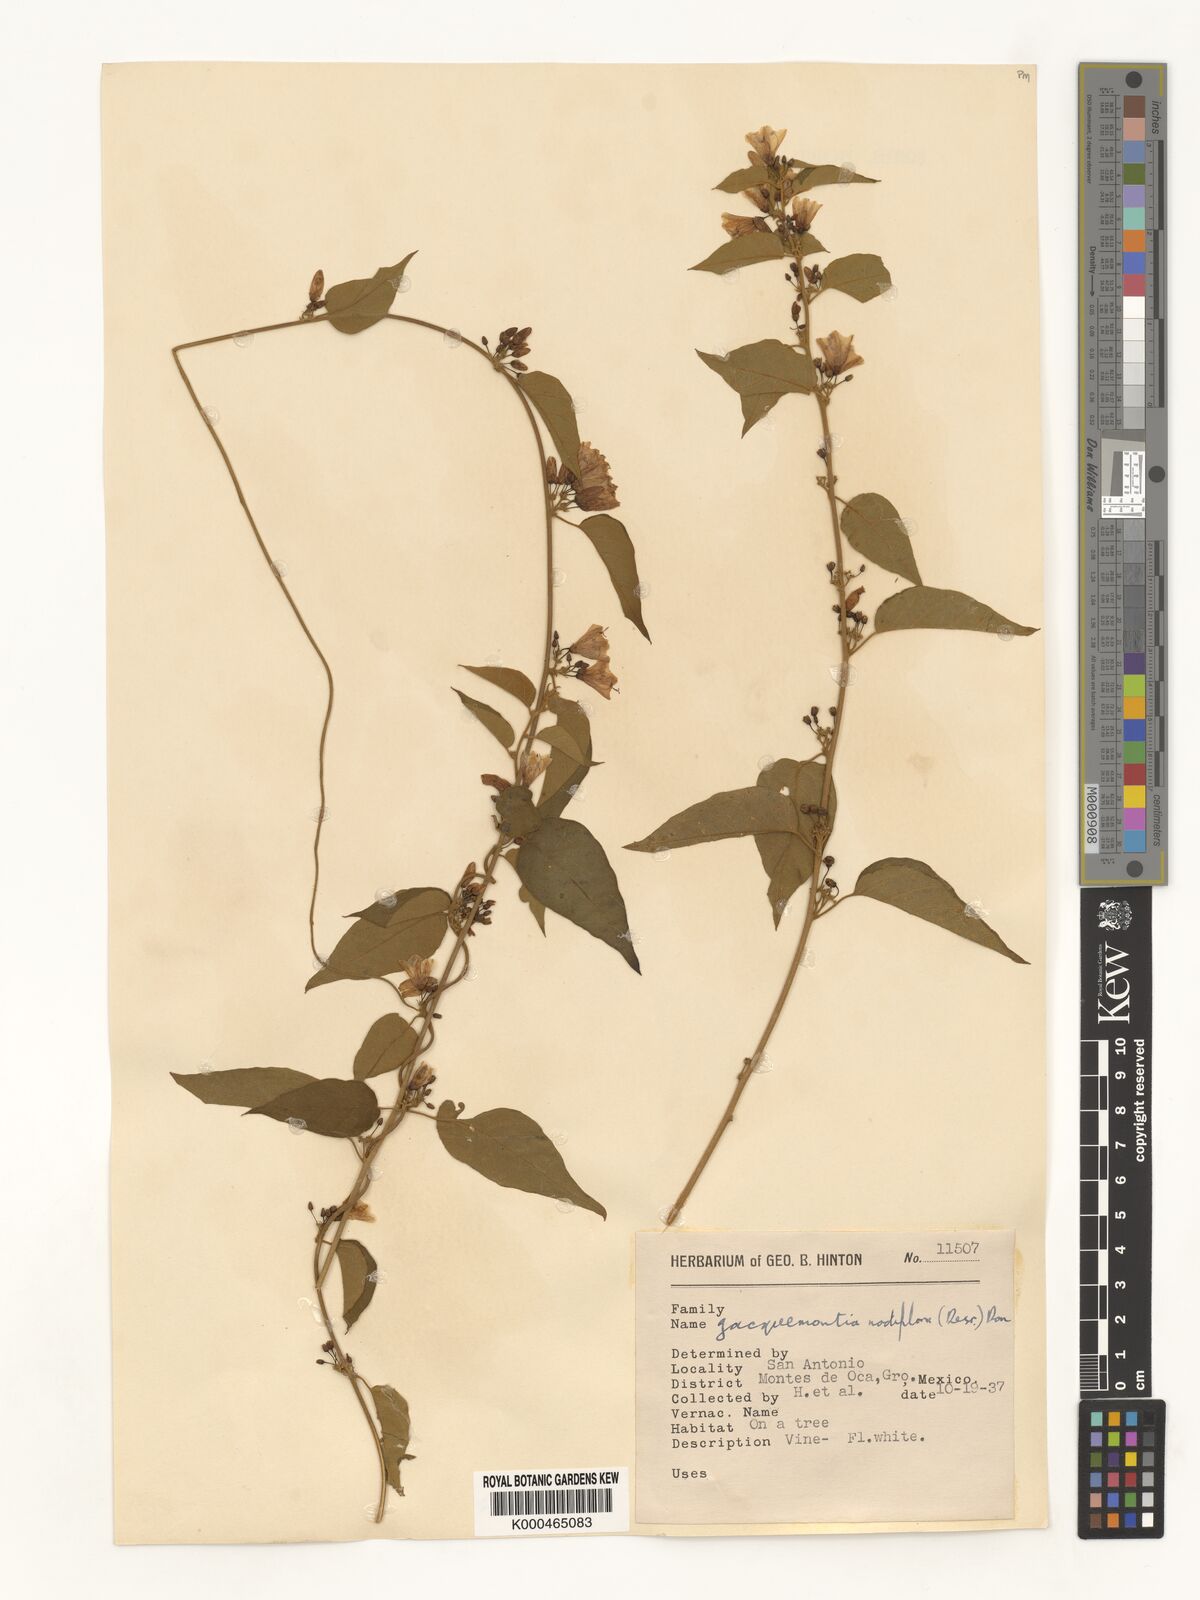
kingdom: Plantae
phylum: Tracheophyta
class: Magnoliopsida
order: Solanales
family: Convolvulaceae
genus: Jacquemontia
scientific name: Jacquemontia nodiflora
